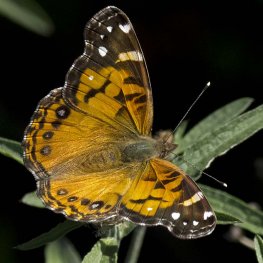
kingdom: Animalia
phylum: Arthropoda
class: Insecta
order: Lepidoptera
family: Nymphalidae
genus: Vanessa
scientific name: Vanessa virginiensis
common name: American Lady
